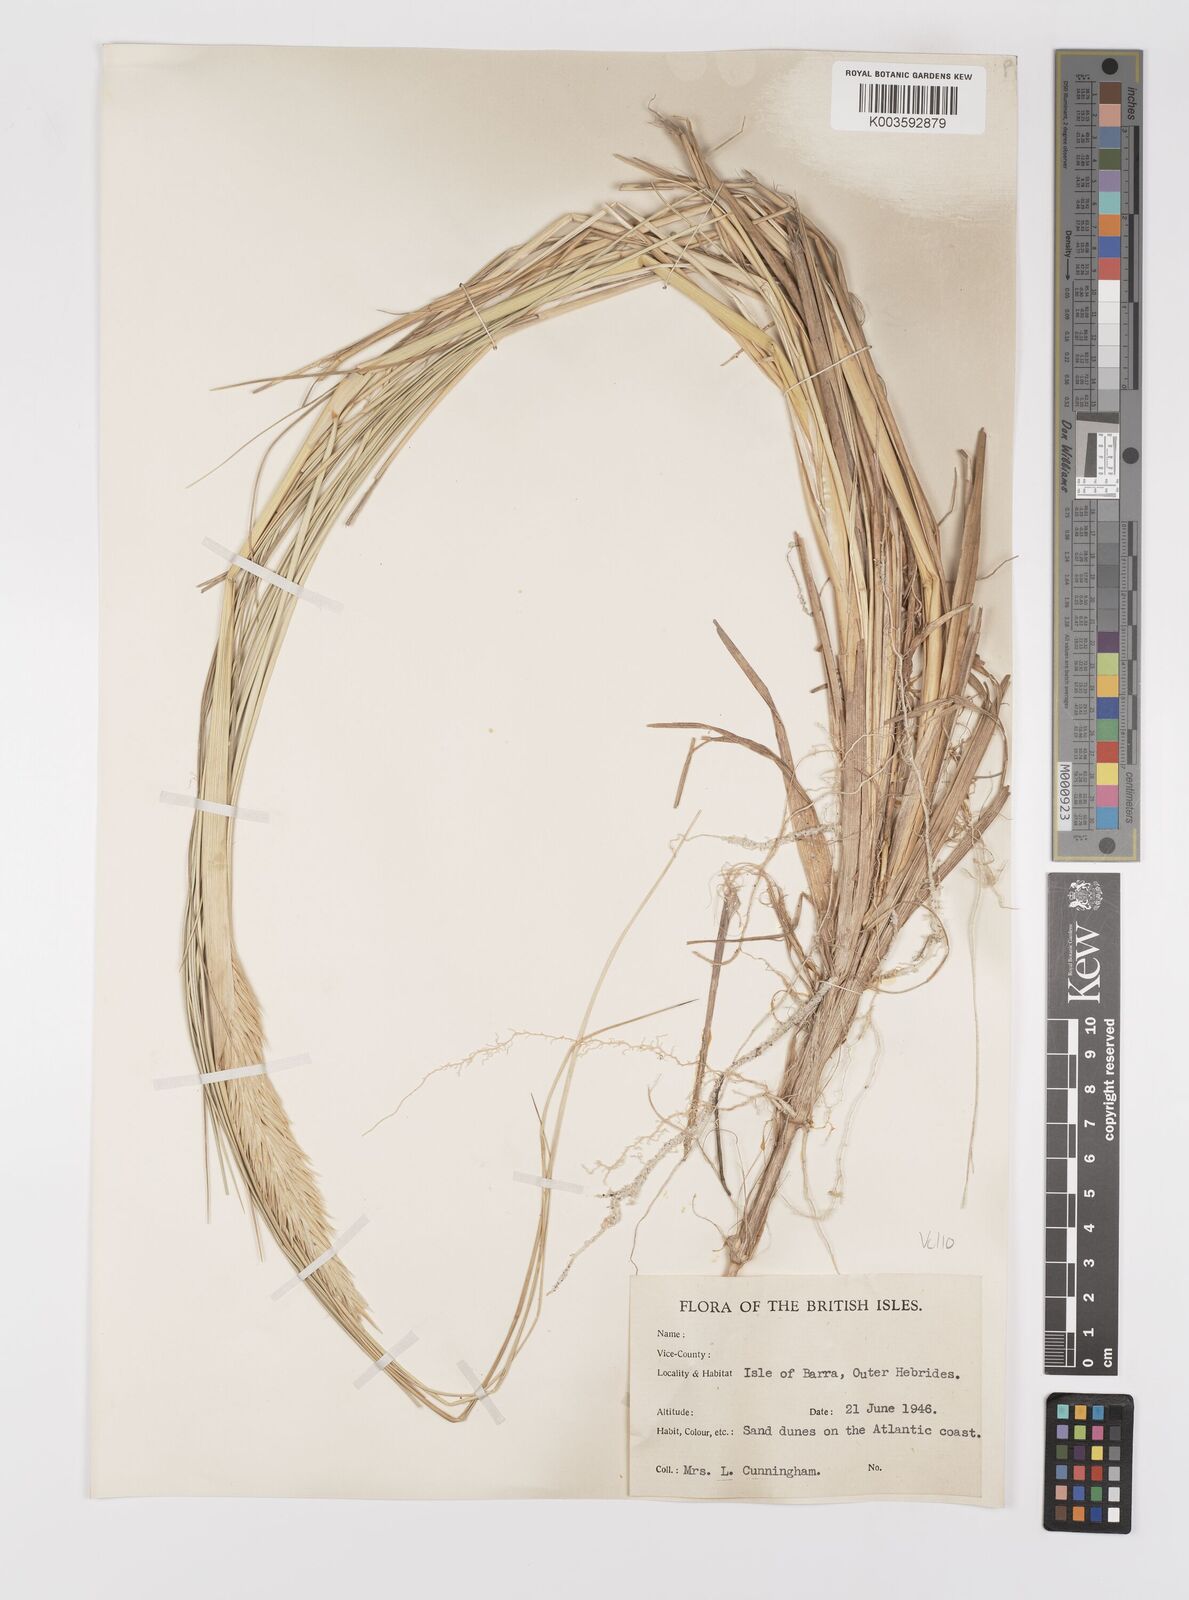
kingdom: Plantae
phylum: Tracheophyta
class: Liliopsida
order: Poales
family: Poaceae
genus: Calamagrostis
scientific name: Calamagrostis arenaria
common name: European beachgrass
